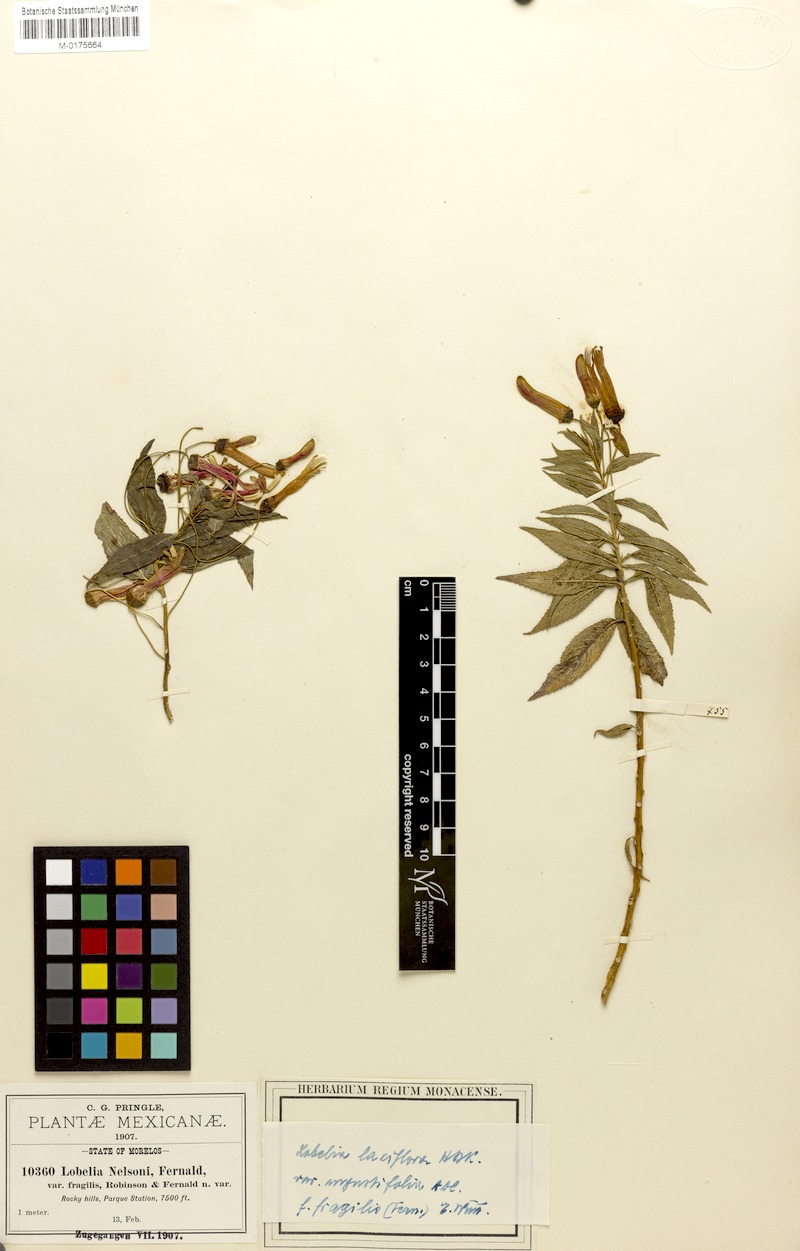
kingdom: Plantae
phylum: Tracheophyta
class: Magnoliopsida
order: Asterales
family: Campanulaceae
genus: Lobelia
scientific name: Lobelia laxiflora
